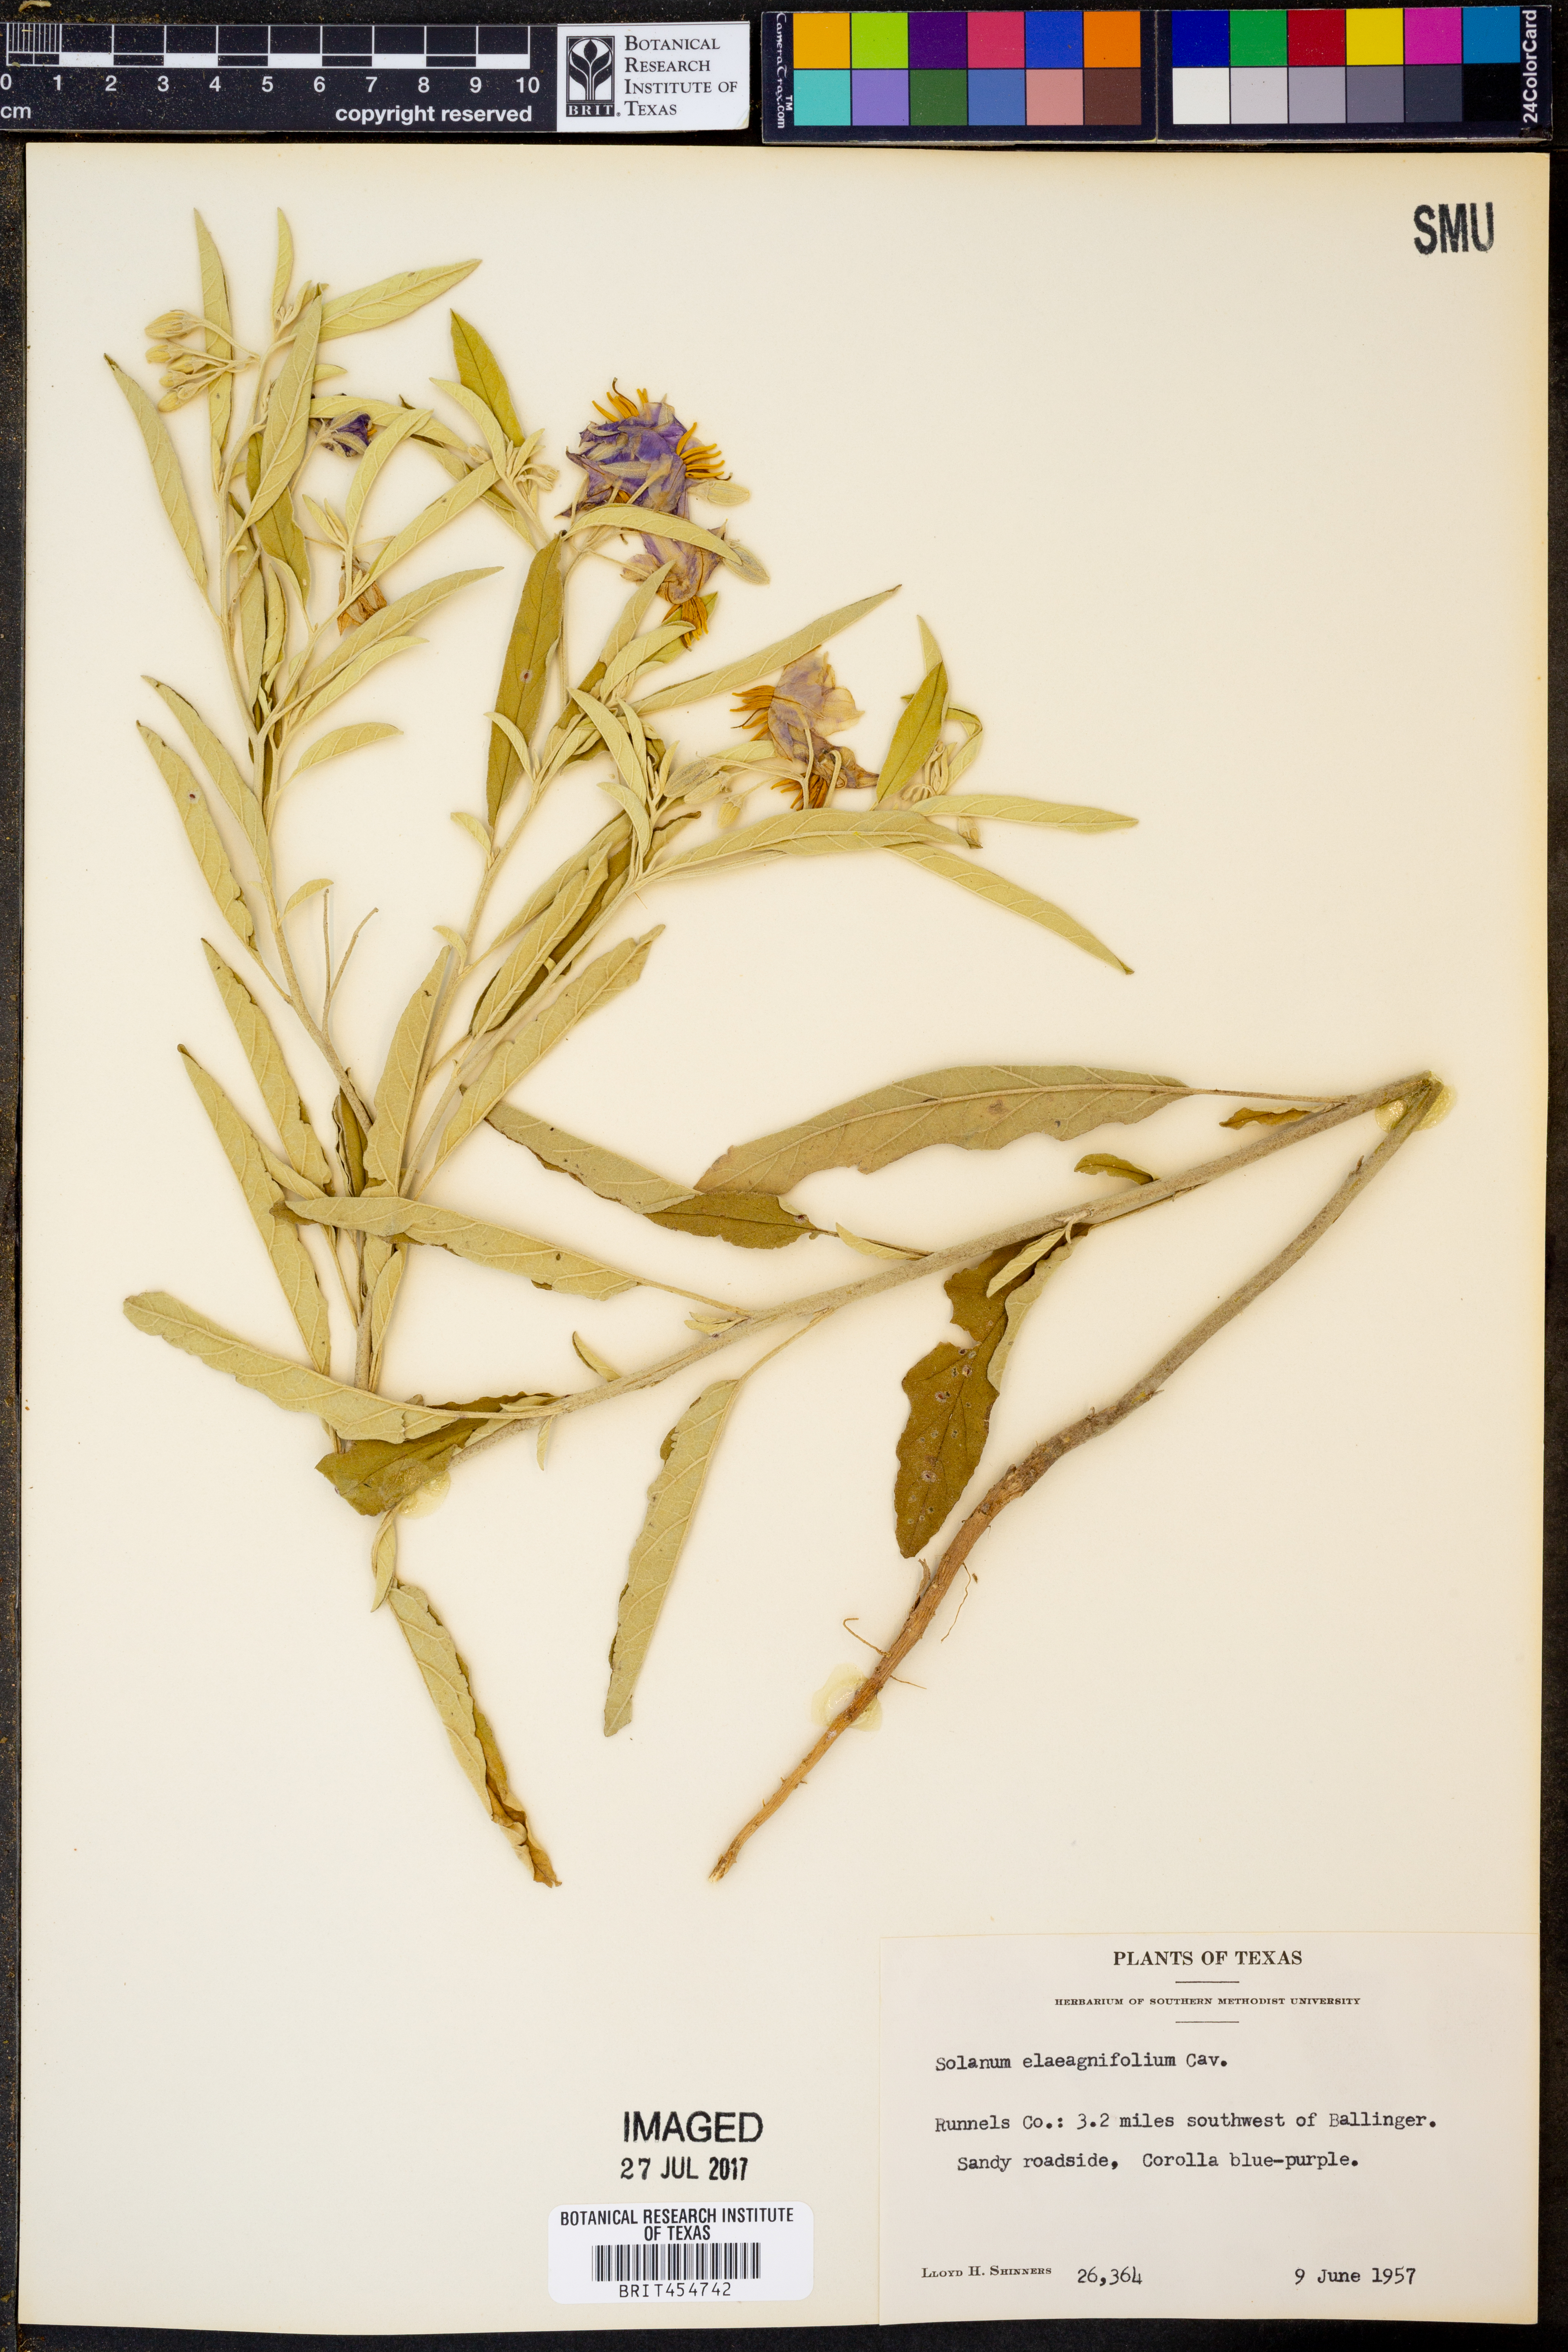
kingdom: Plantae
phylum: Tracheophyta
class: Magnoliopsida
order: Solanales
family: Solanaceae
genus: Solanum
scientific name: Solanum elaeagnifolium
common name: Silverleaf nightshade
